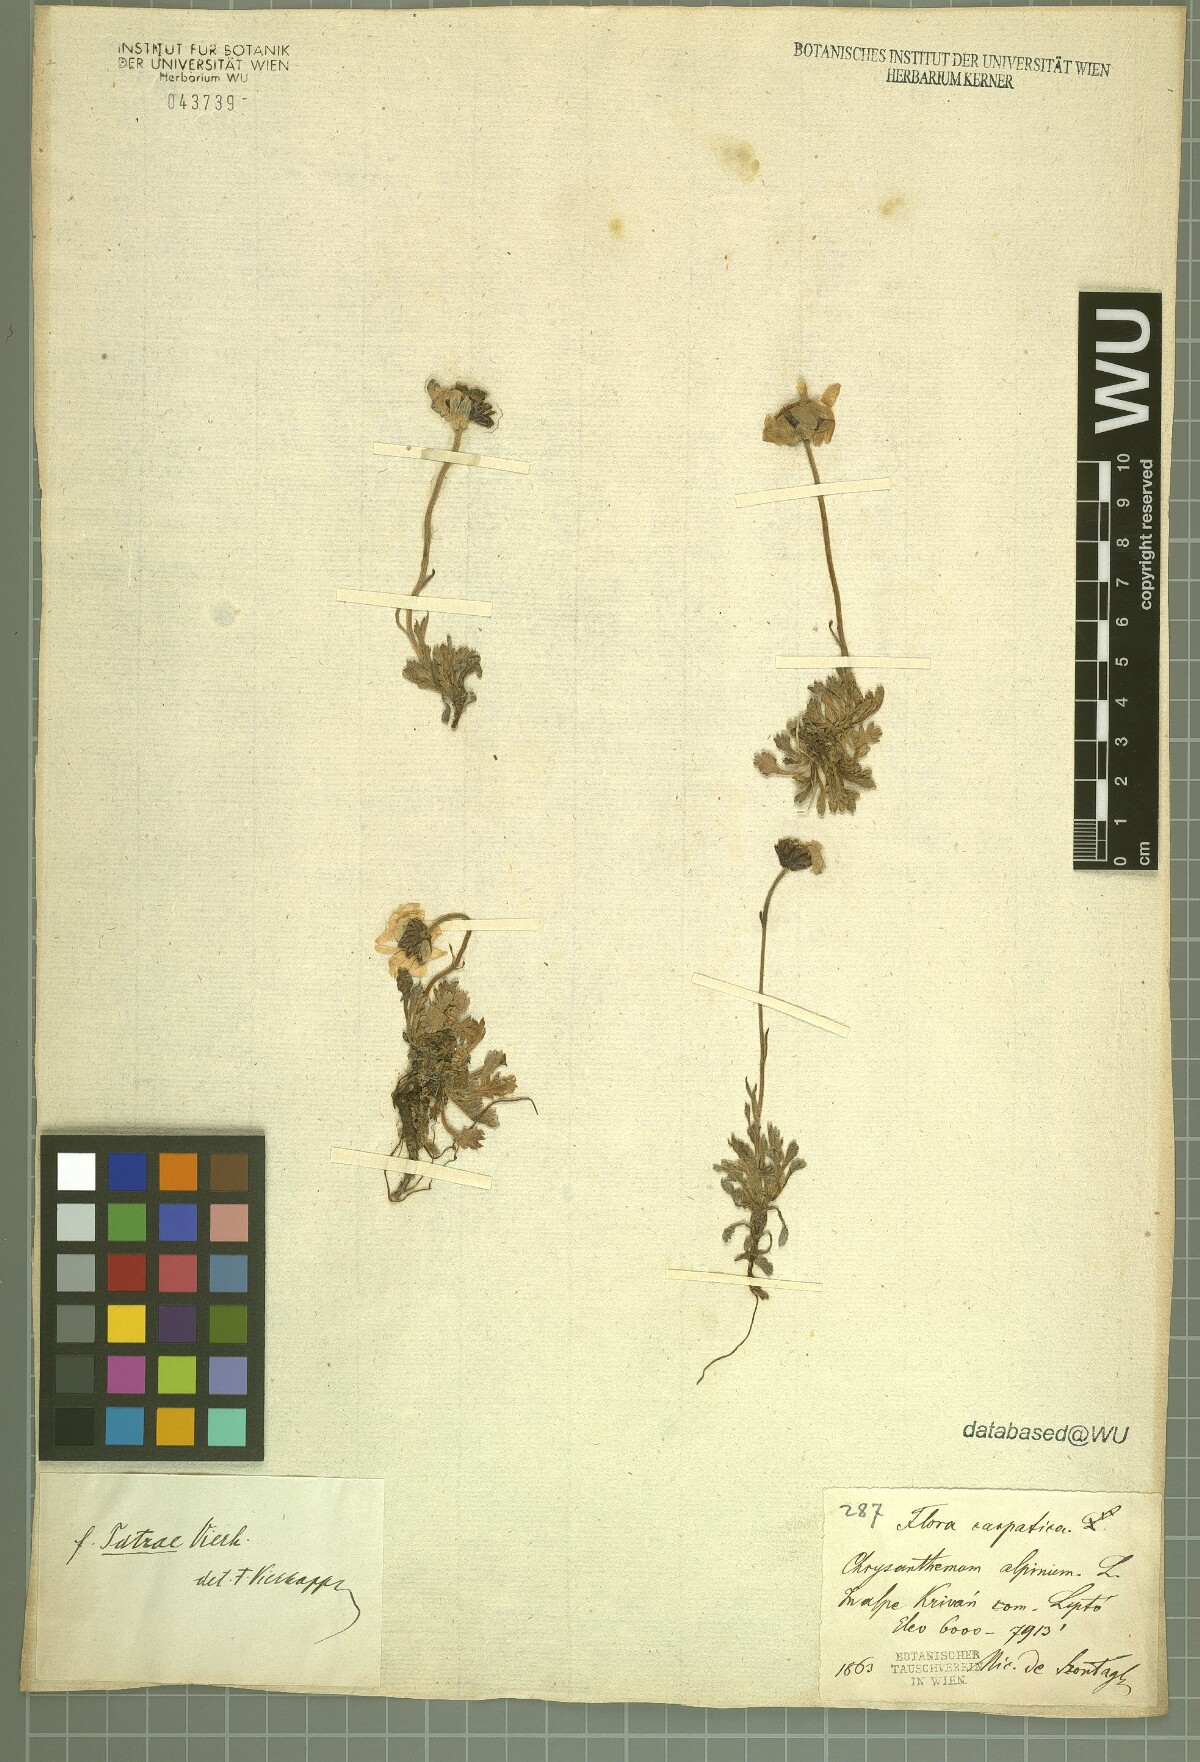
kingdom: Plantae
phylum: Tracheophyta
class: Magnoliopsida
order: Asterales
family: Asteraceae
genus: Leucanthemopsis
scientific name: Leucanthemopsis alpina
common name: Alpine moon daisy
